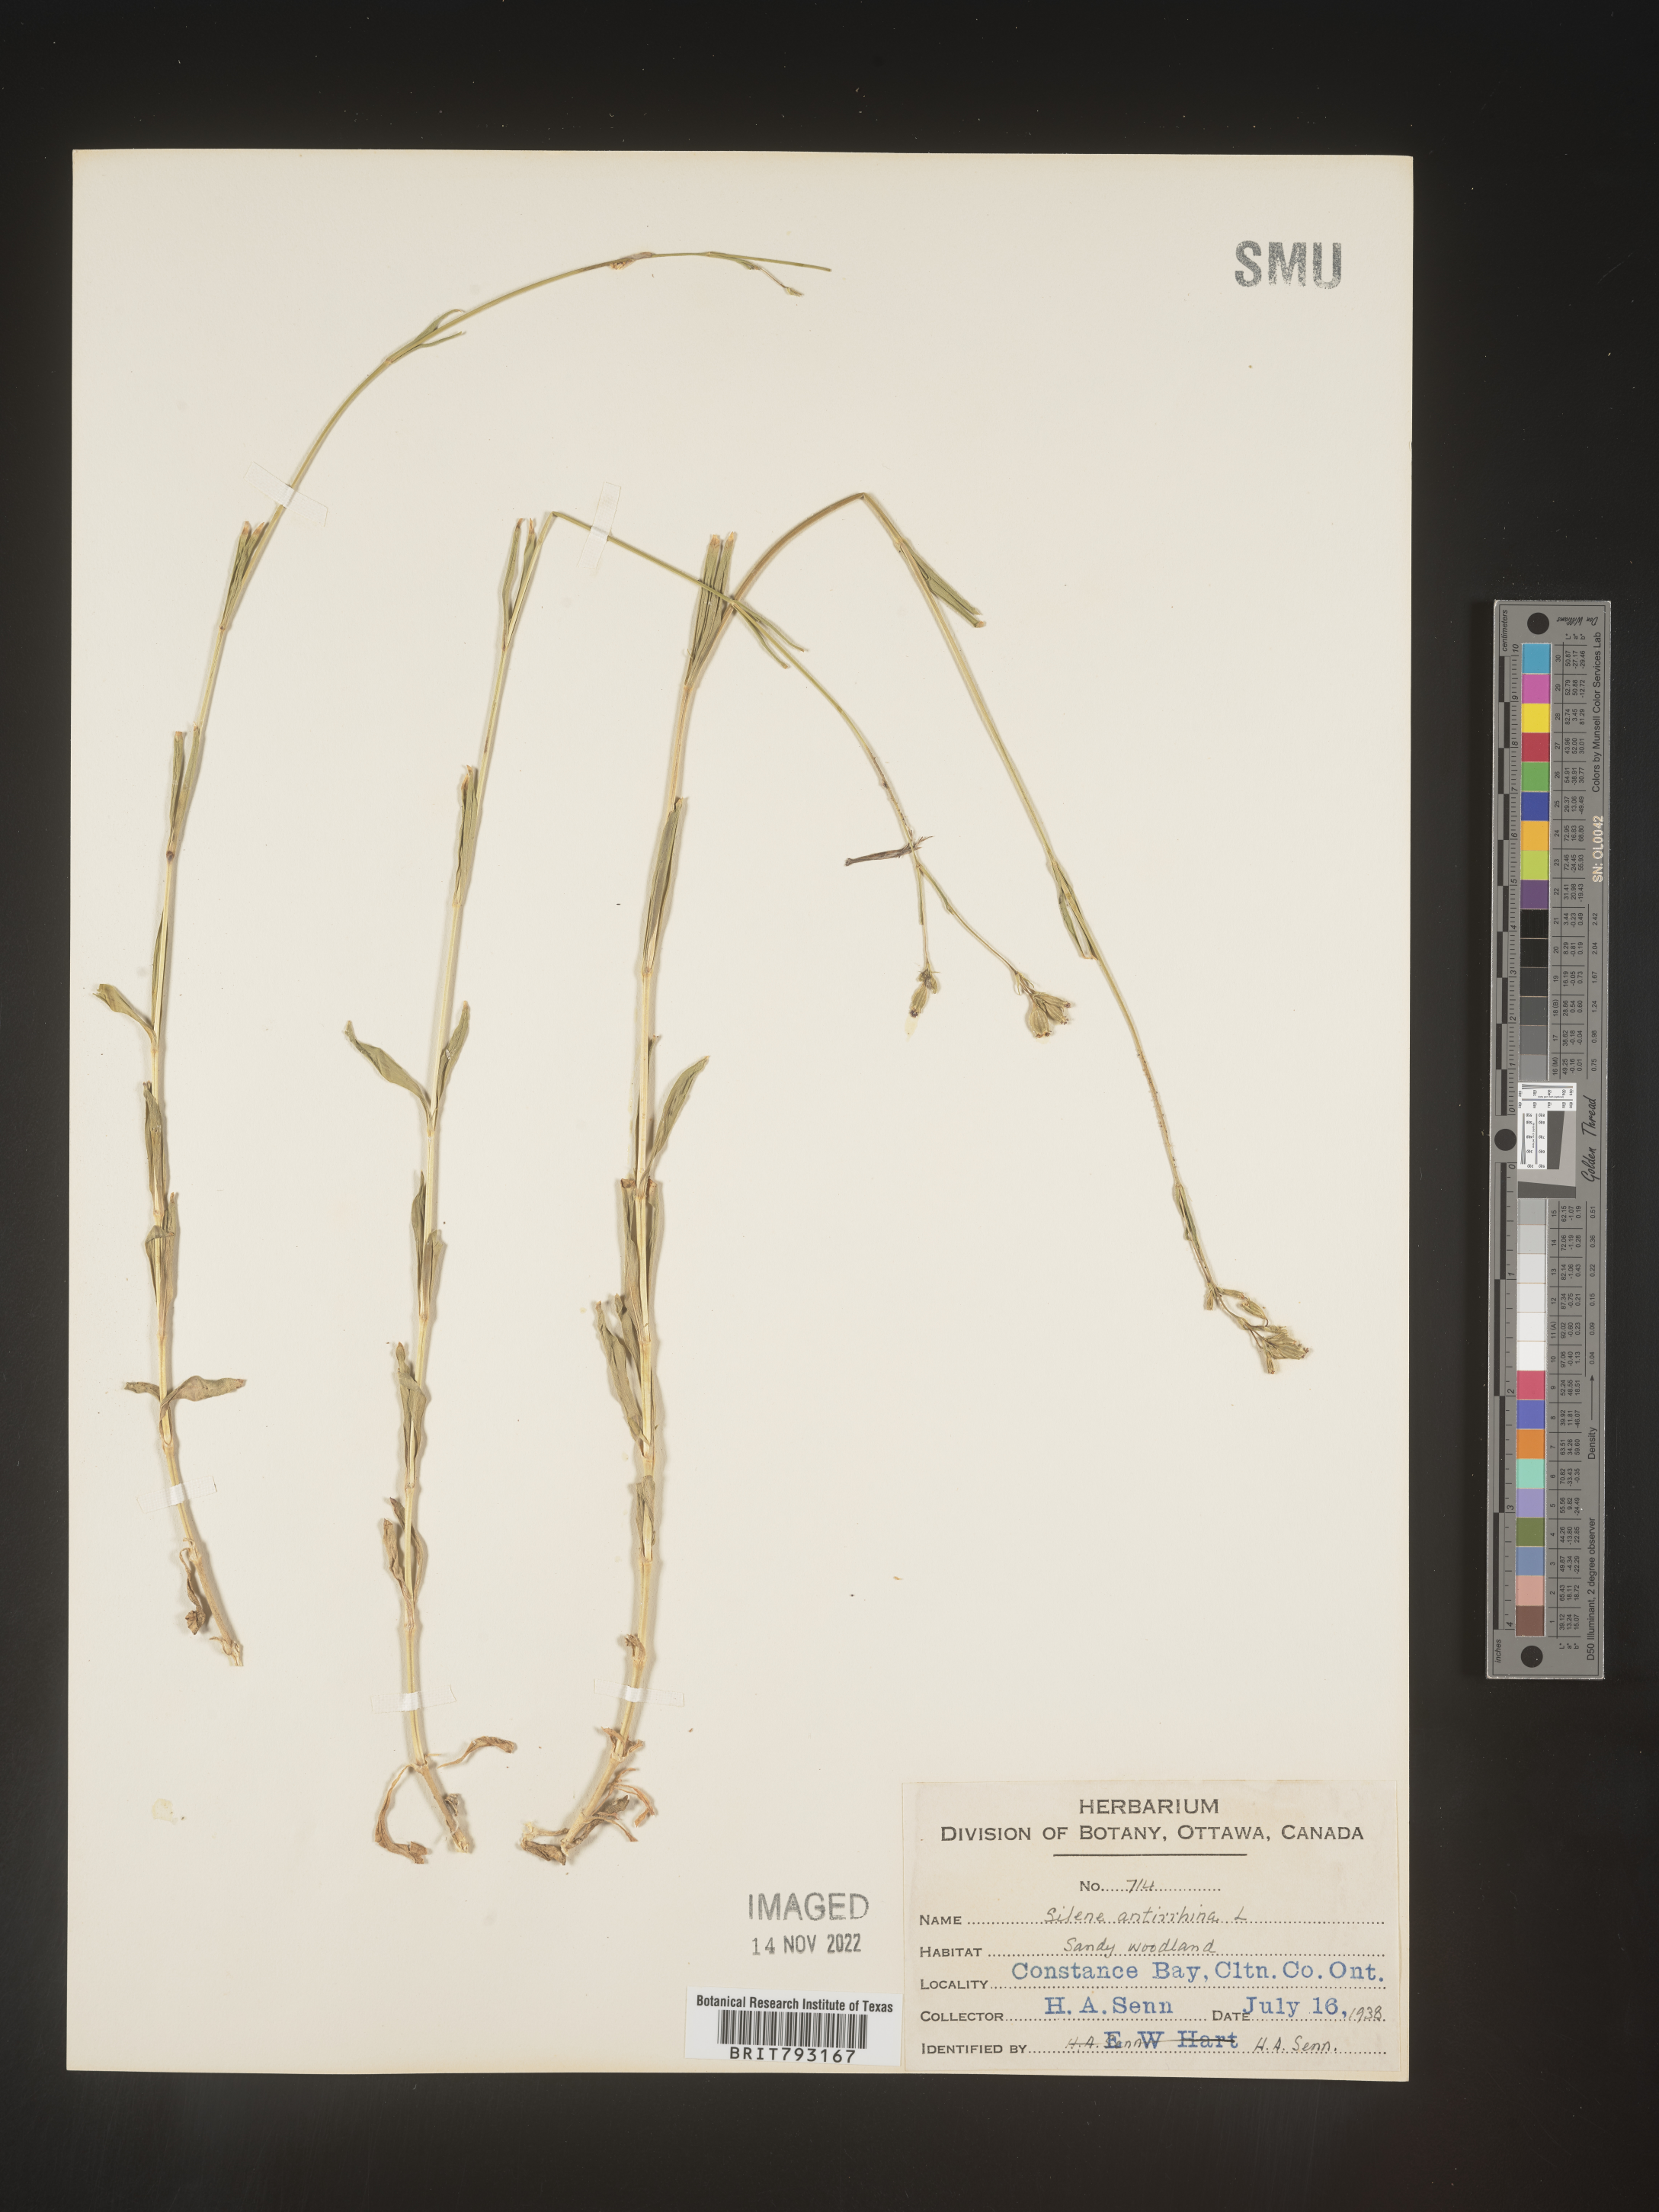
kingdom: Plantae
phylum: Tracheophyta
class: Magnoliopsida
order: Caryophyllales
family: Caryophyllaceae
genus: Silene
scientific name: Silene antirrhina
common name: Sleepy catchfly
